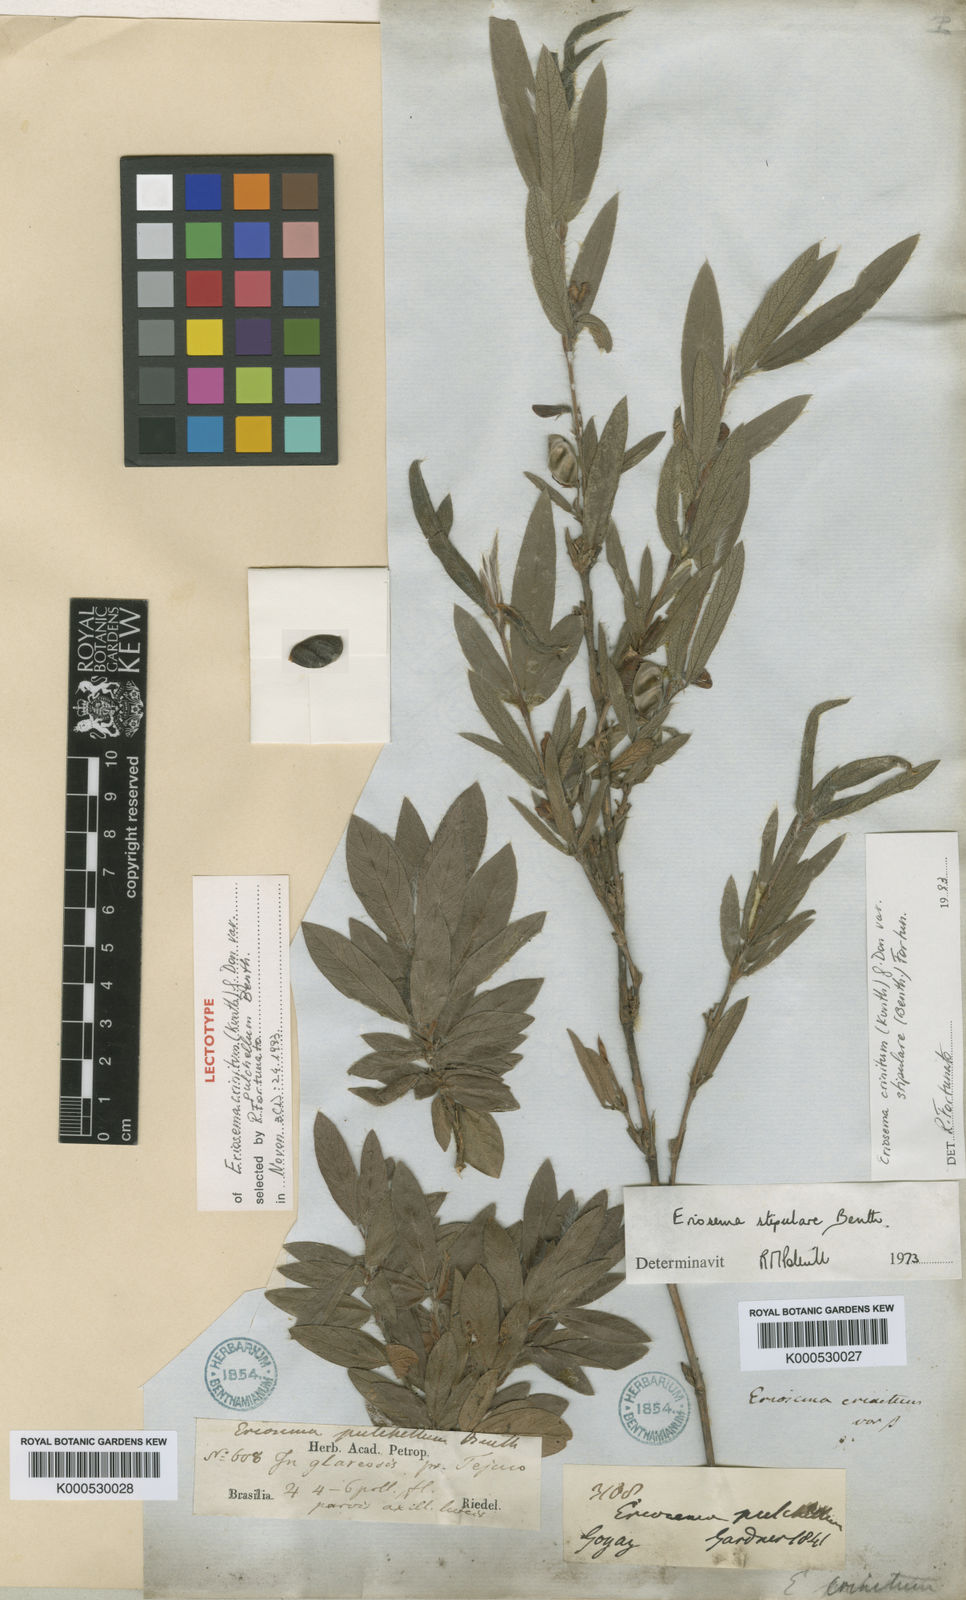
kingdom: Plantae
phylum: Tracheophyta
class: Magnoliopsida
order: Fabales
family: Fabaceae
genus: Eriosema
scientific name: Eriosema crinitum
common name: Sand pea
